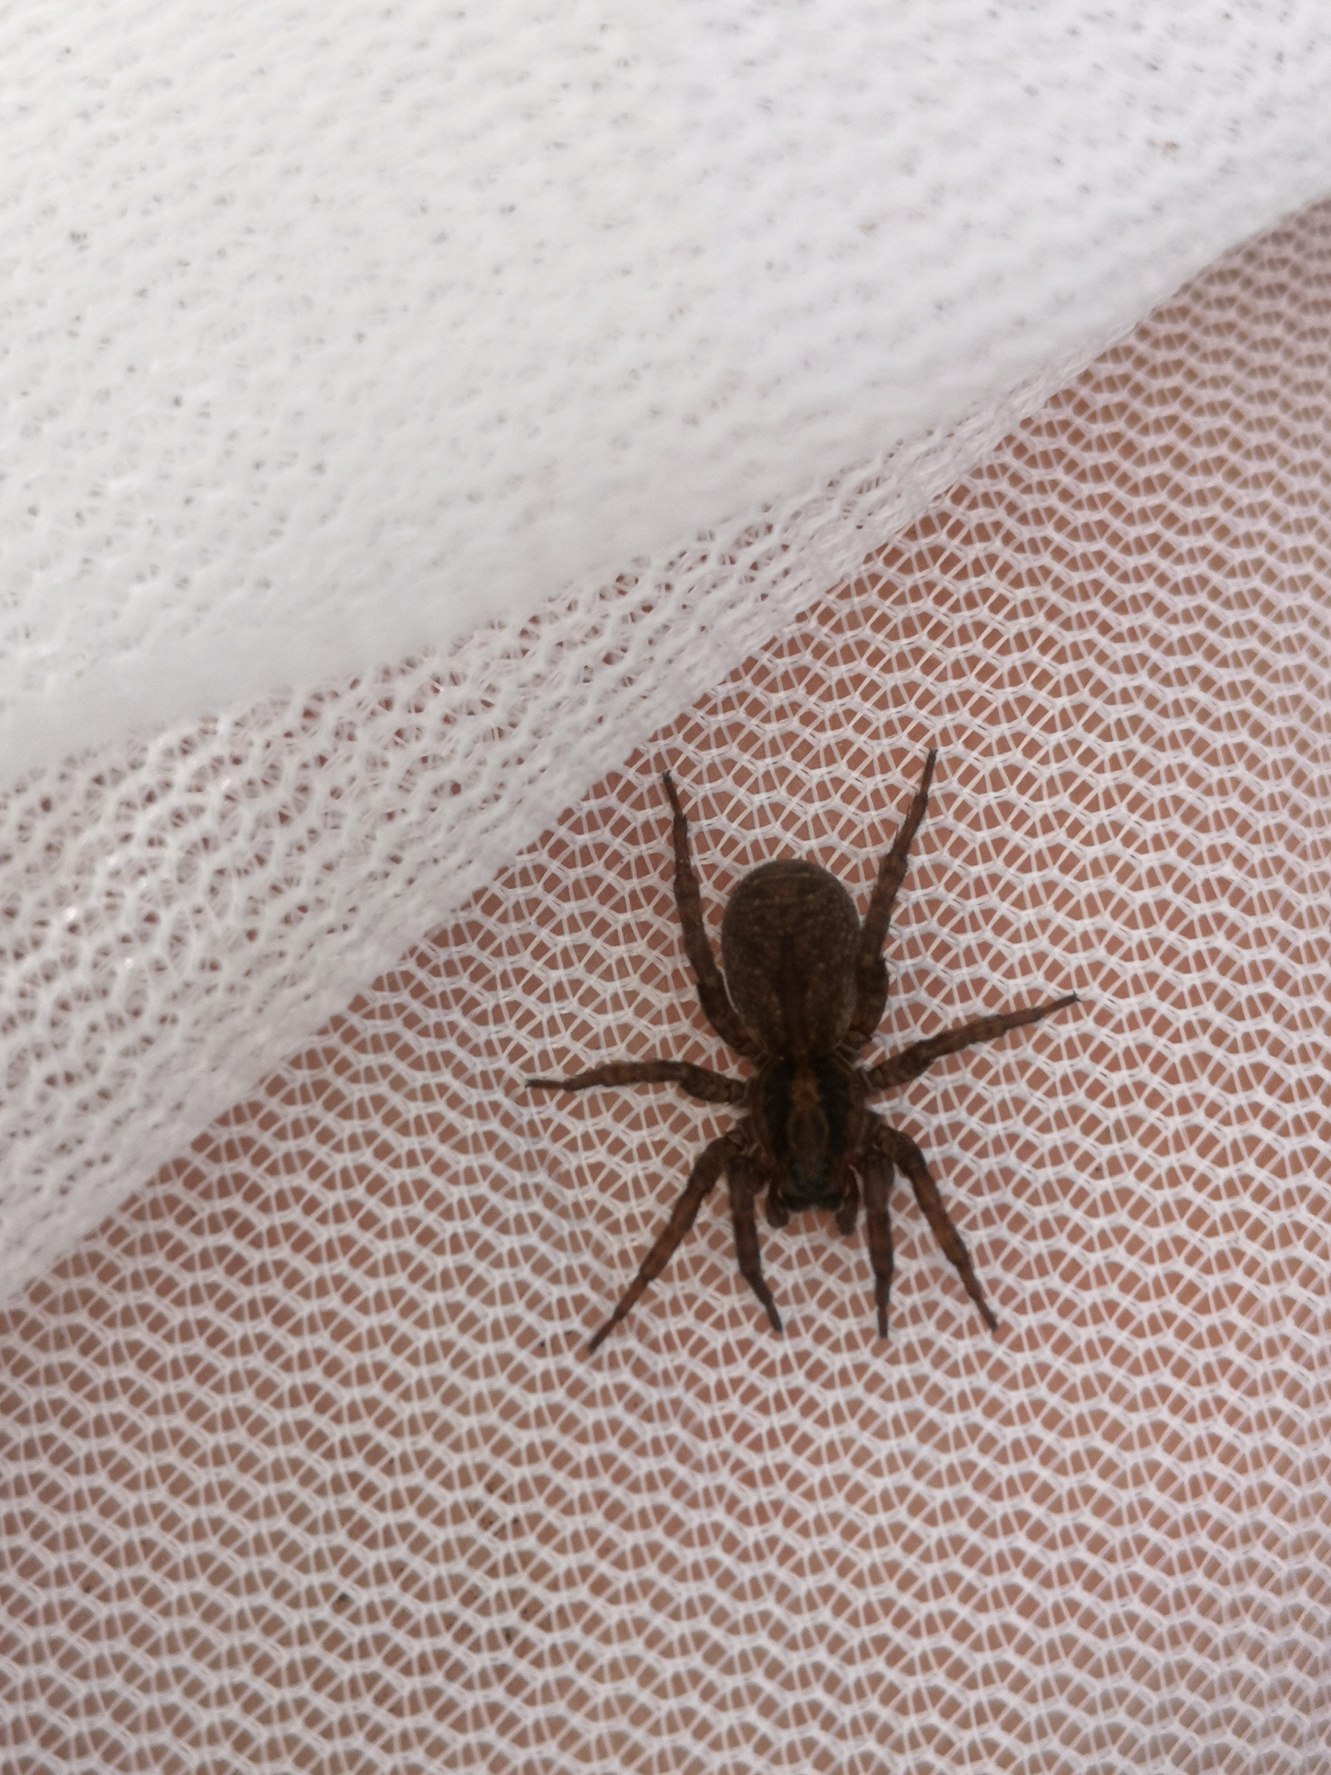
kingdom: Animalia
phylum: Arthropoda
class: Arachnida
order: Araneae
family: Lycosidae
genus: Trochosa
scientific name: Trochosa
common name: Bjørneedderkopslægten
